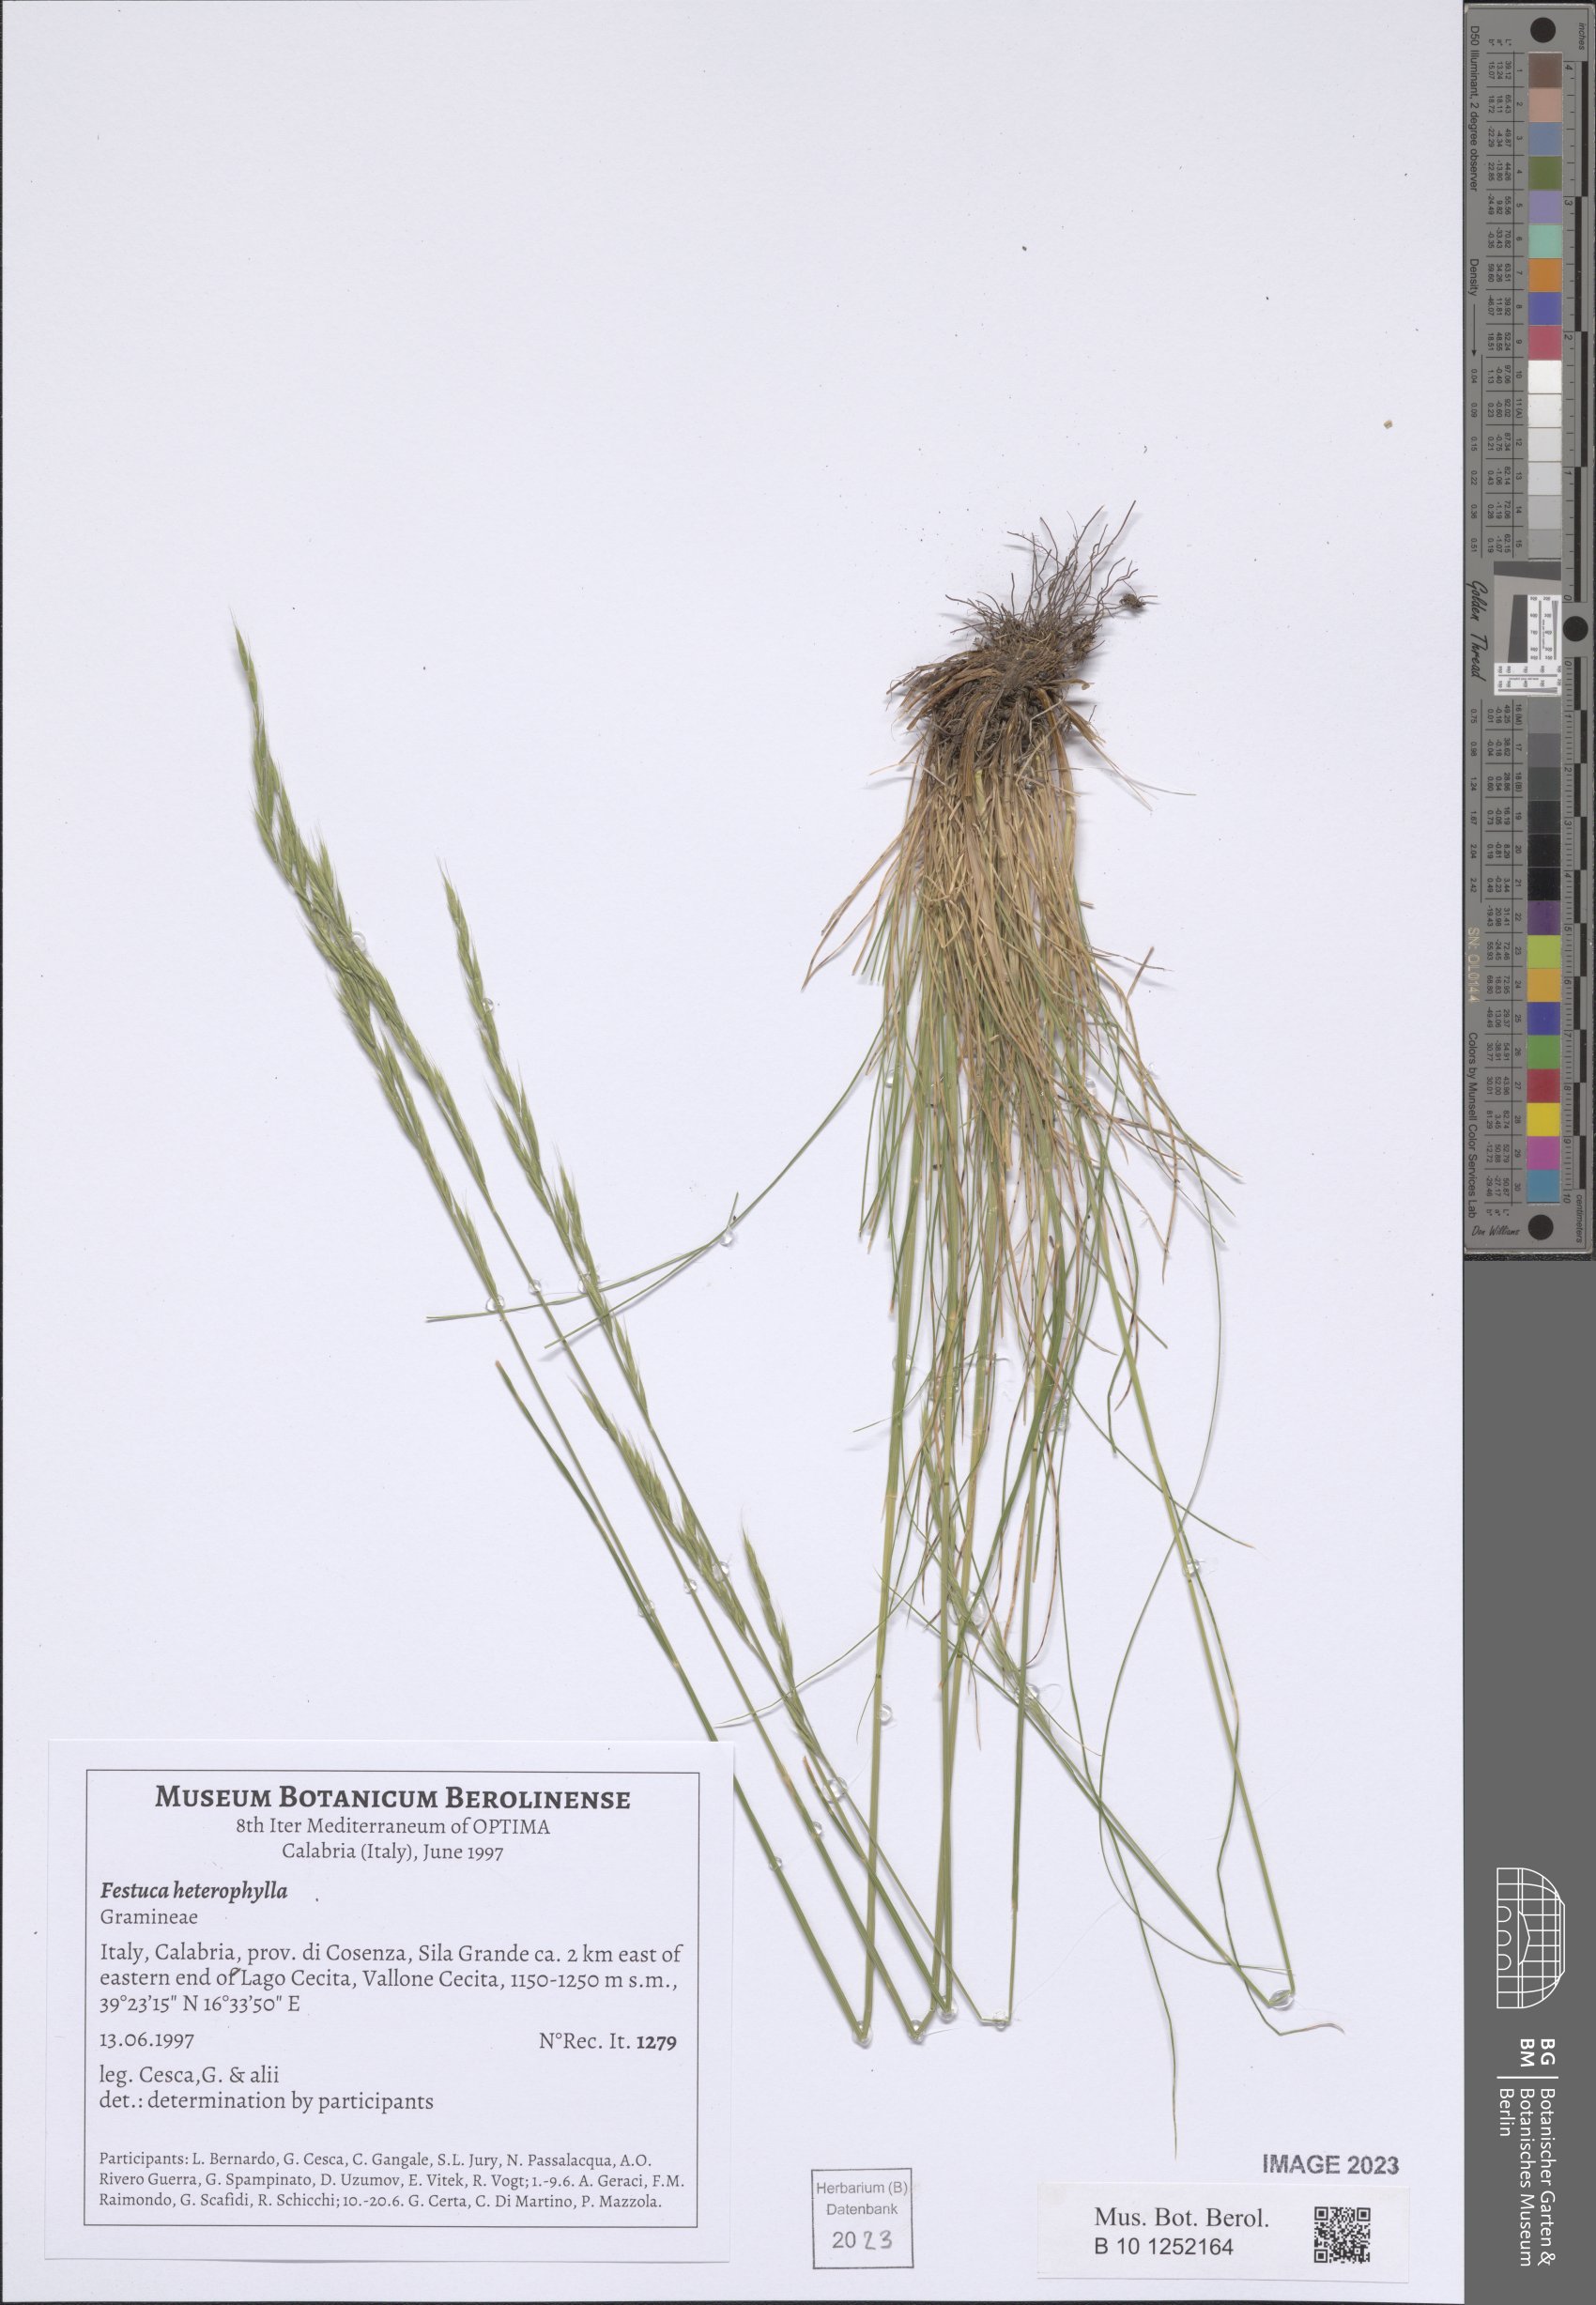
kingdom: Plantae
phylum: Tracheophyta
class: Liliopsida
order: Poales
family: Poaceae
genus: Festuca
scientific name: Festuca heterophylla
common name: Various-leaved fescue
